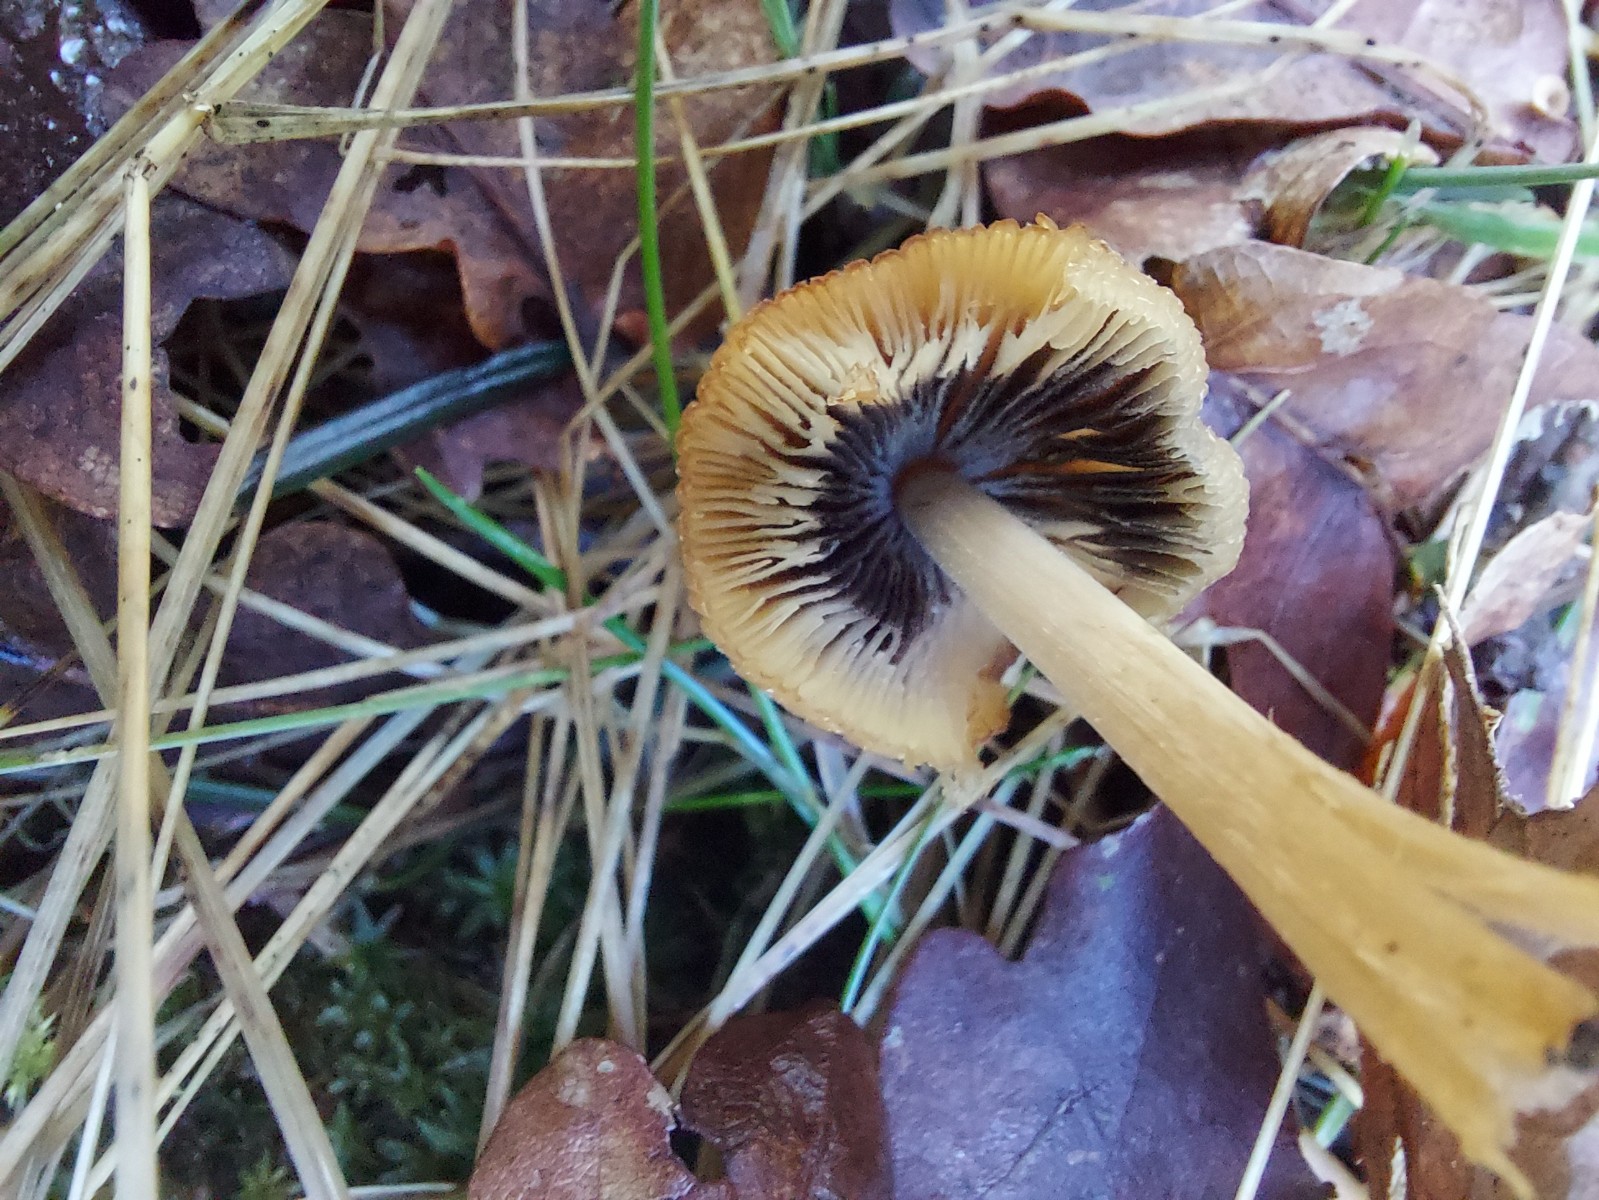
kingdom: Fungi
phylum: Basidiomycota
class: Agaricomycetes
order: Agaricales
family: Psathyrellaceae
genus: Coprinellus
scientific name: Coprinellus micaceus
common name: glimmer-blækhat
